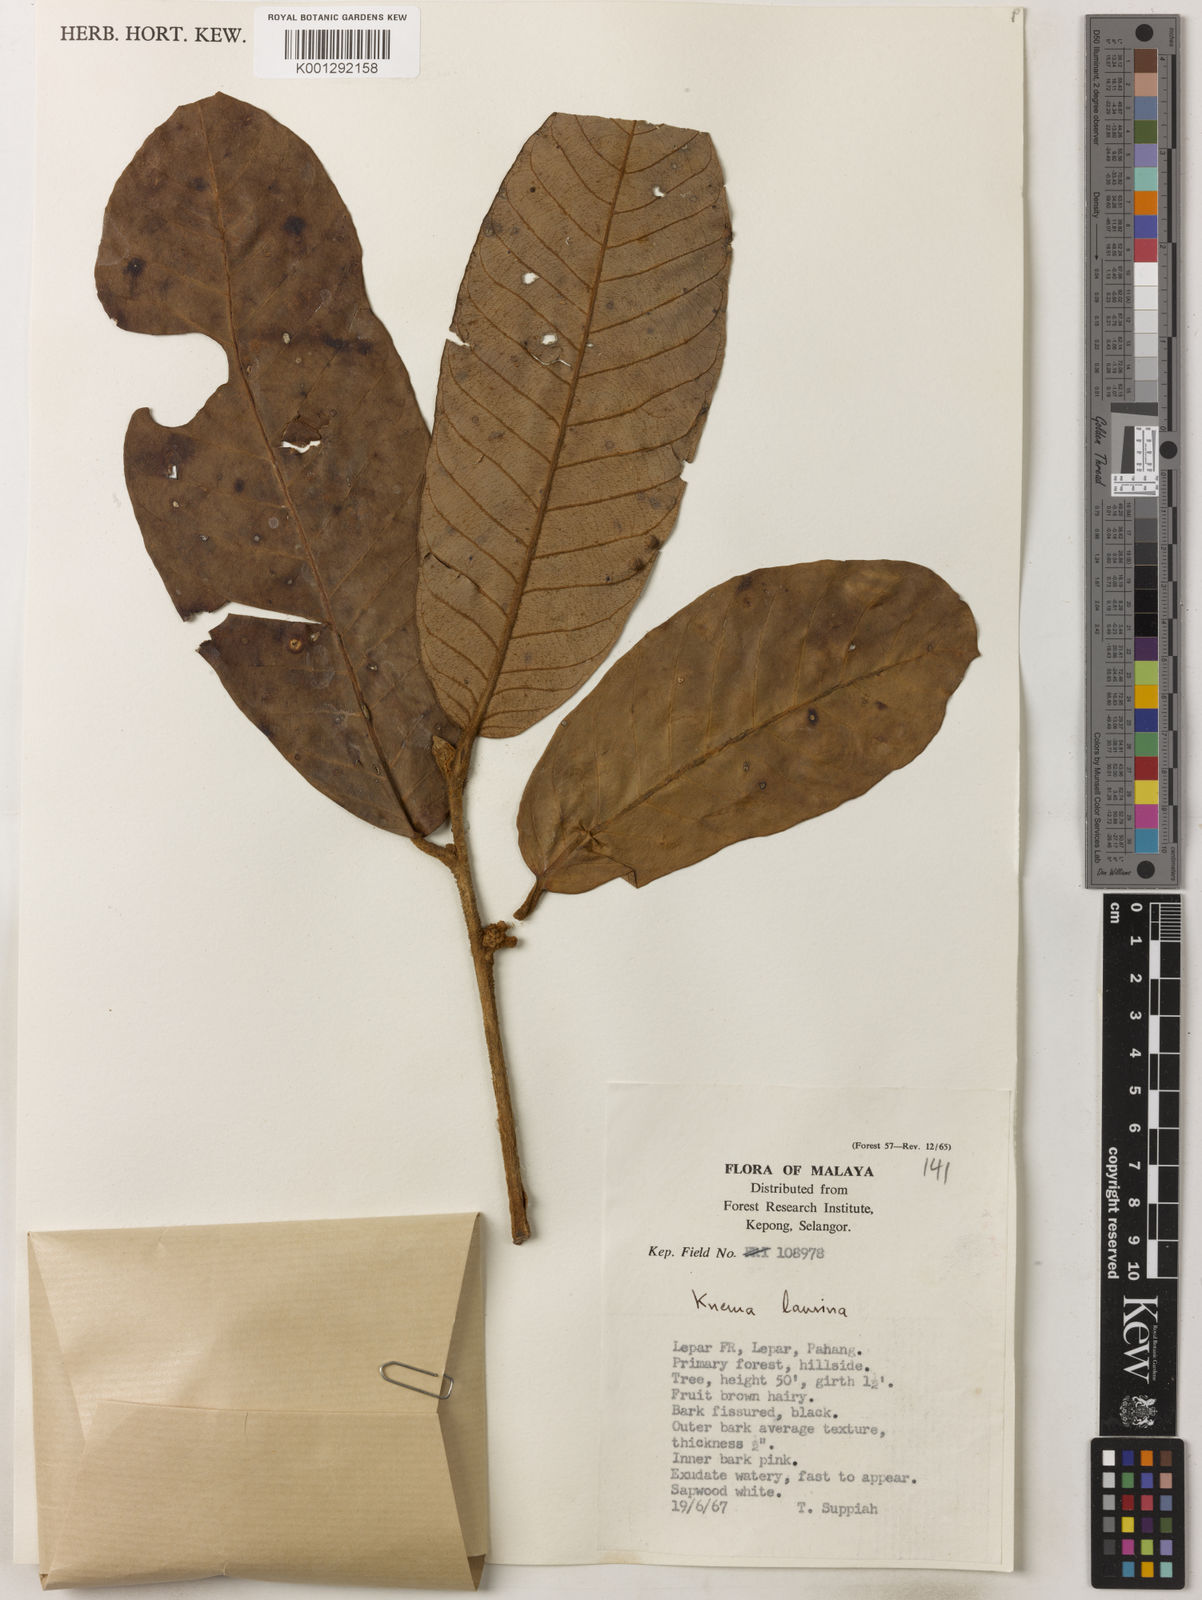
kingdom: Plantae
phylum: Tracheophyta
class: Magnoliopsida
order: Magnoliales
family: Myristicaceae
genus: Knema
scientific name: Knema laurina
